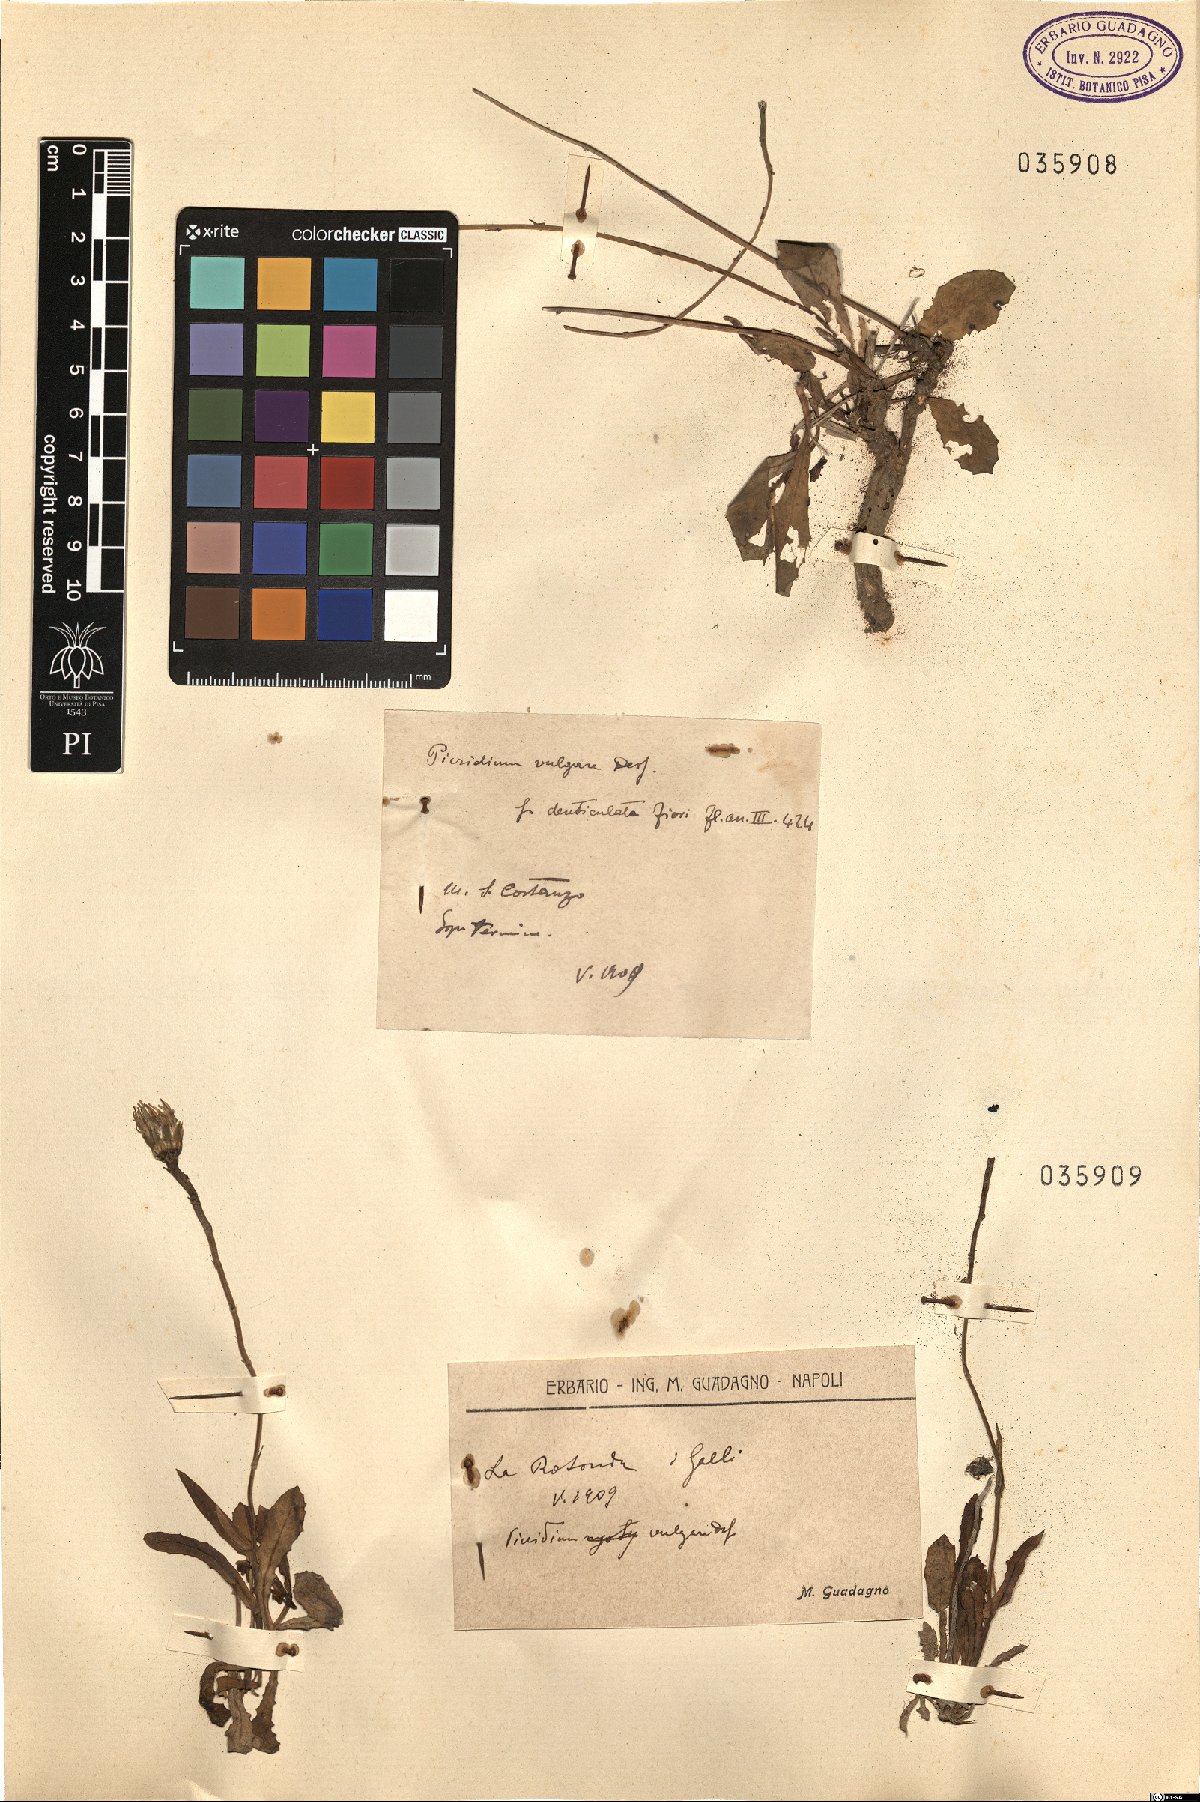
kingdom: Plantae
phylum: Tracheophyta
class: Magnoliopsida
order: Asterales
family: Asteraceae
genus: Reichardia
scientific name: Reichardia picroides
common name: Common brighteyes
